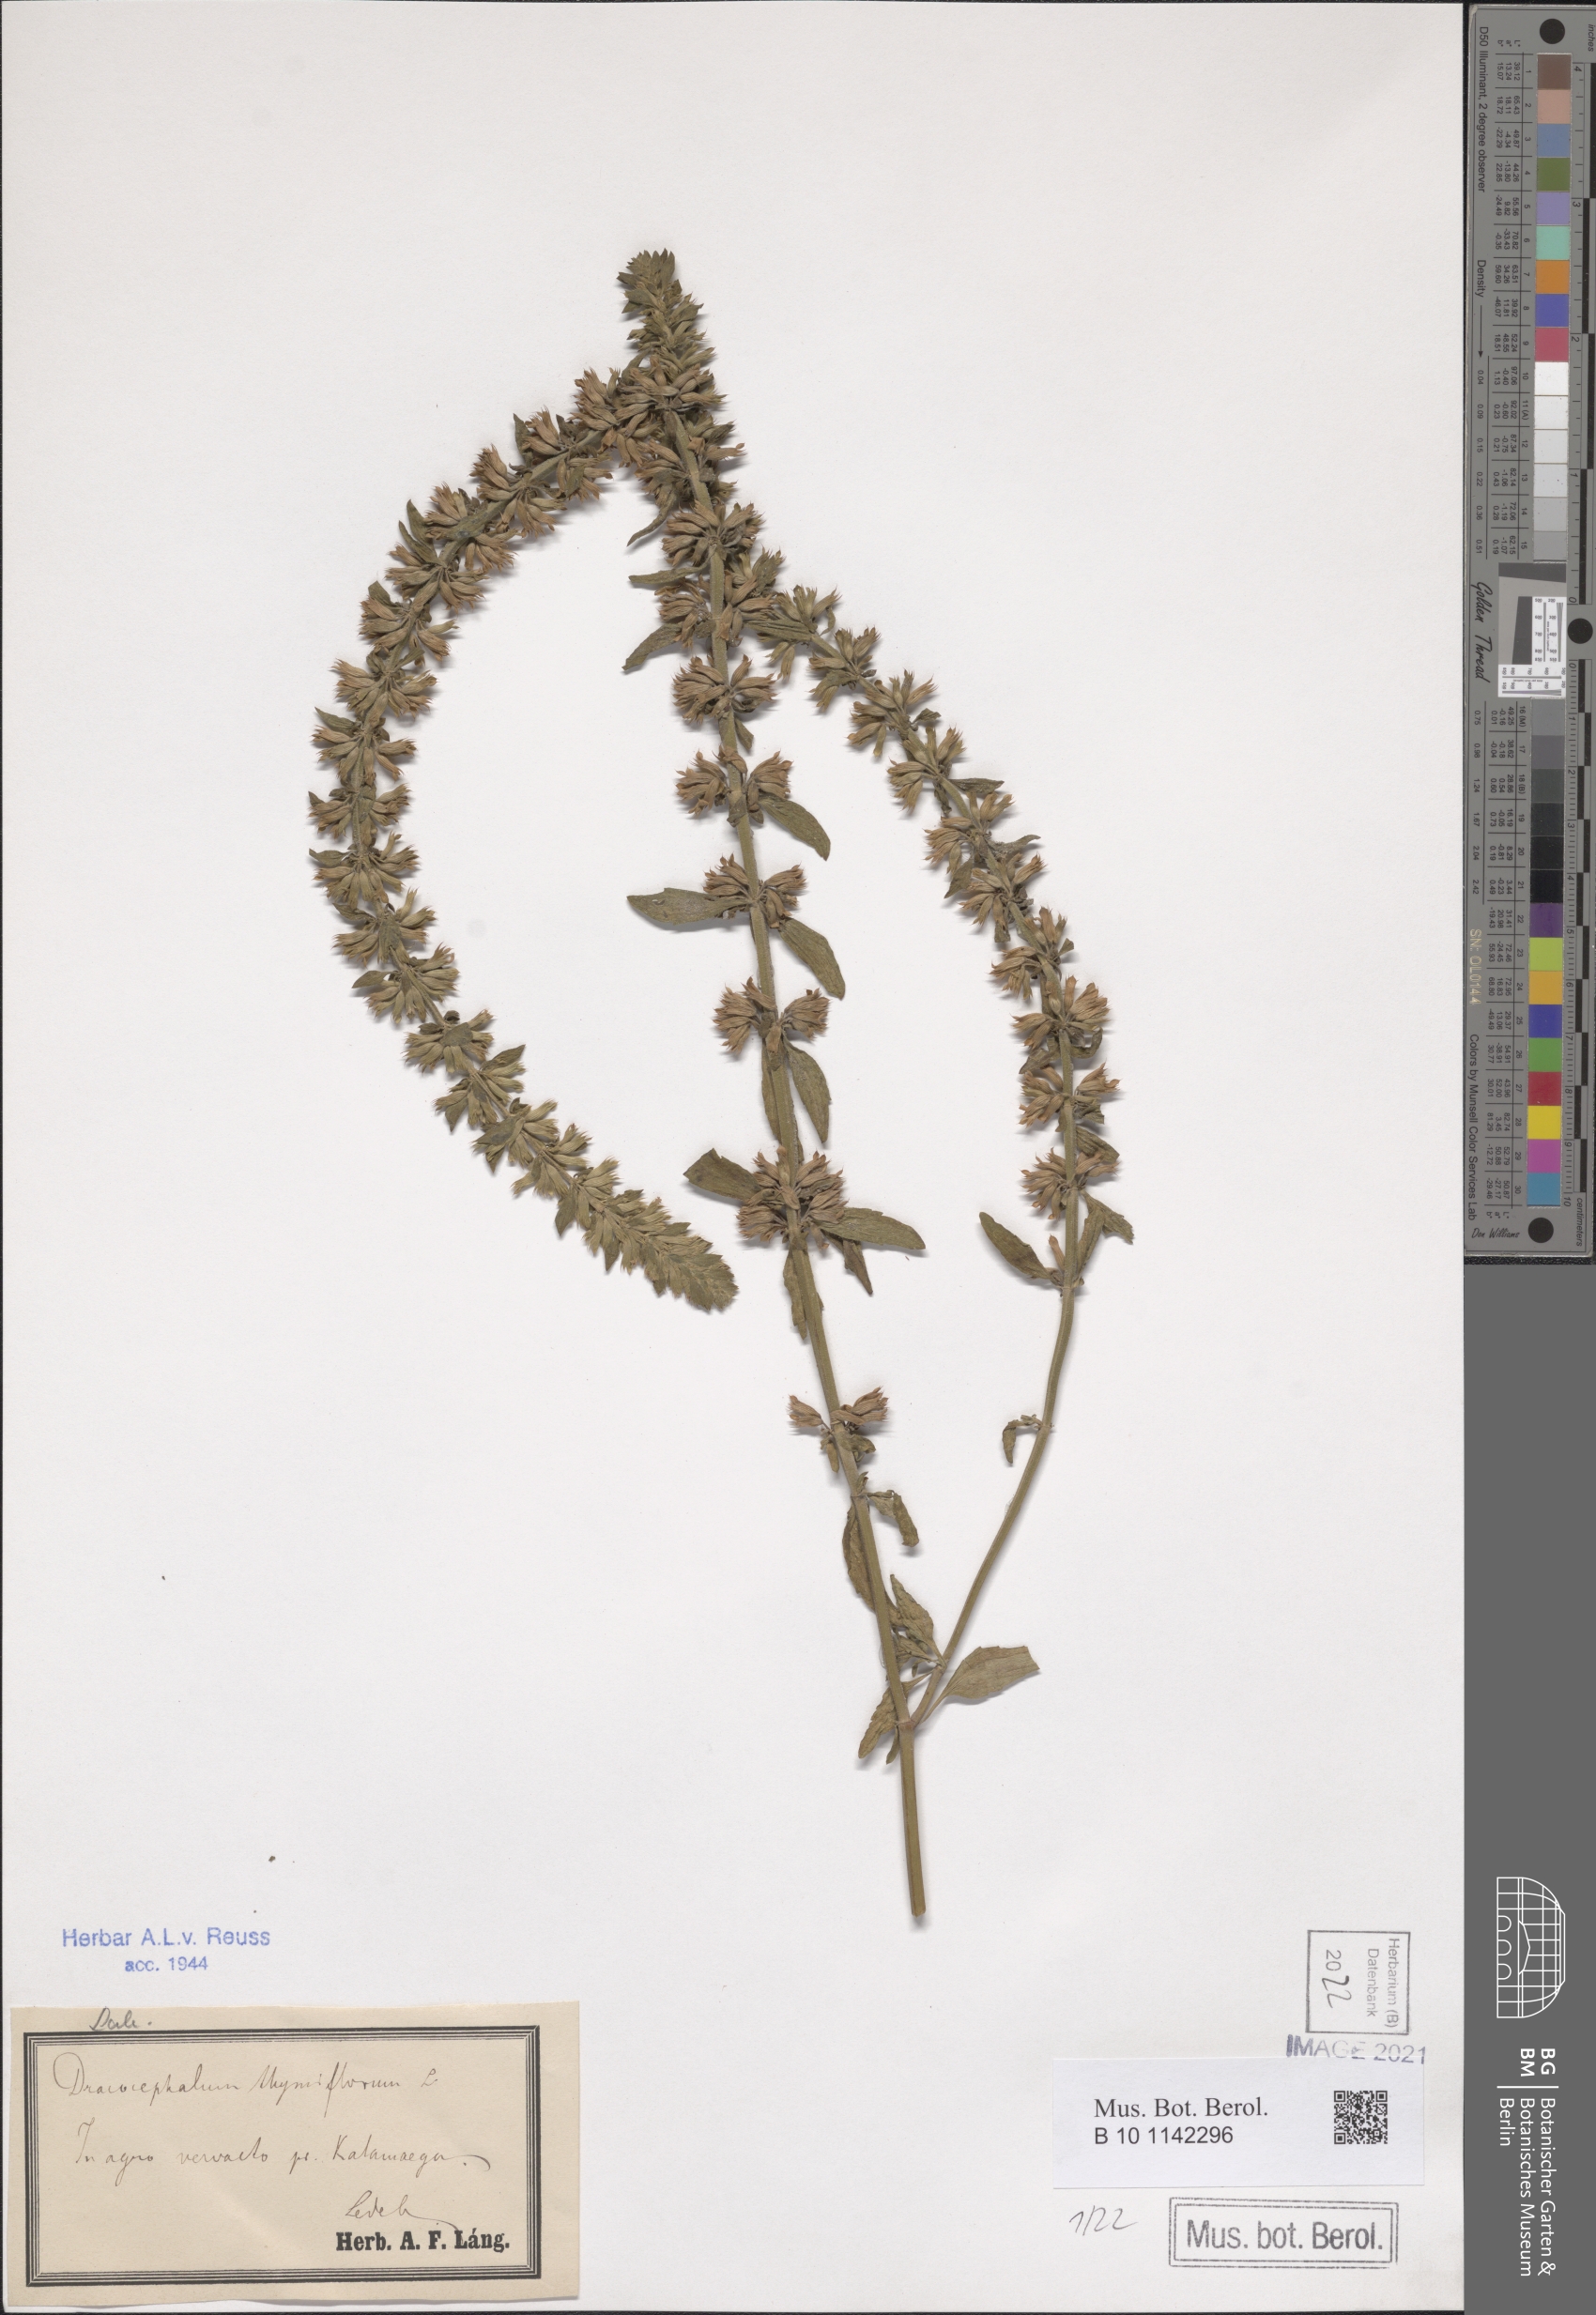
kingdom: Plantae
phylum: Tracheophyta
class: Magnoliopsida
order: Lamiales
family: Lamiaceae
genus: Dracocephalum
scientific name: Dracocephalum thymiflorum
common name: Thymeleaf dragonhead
